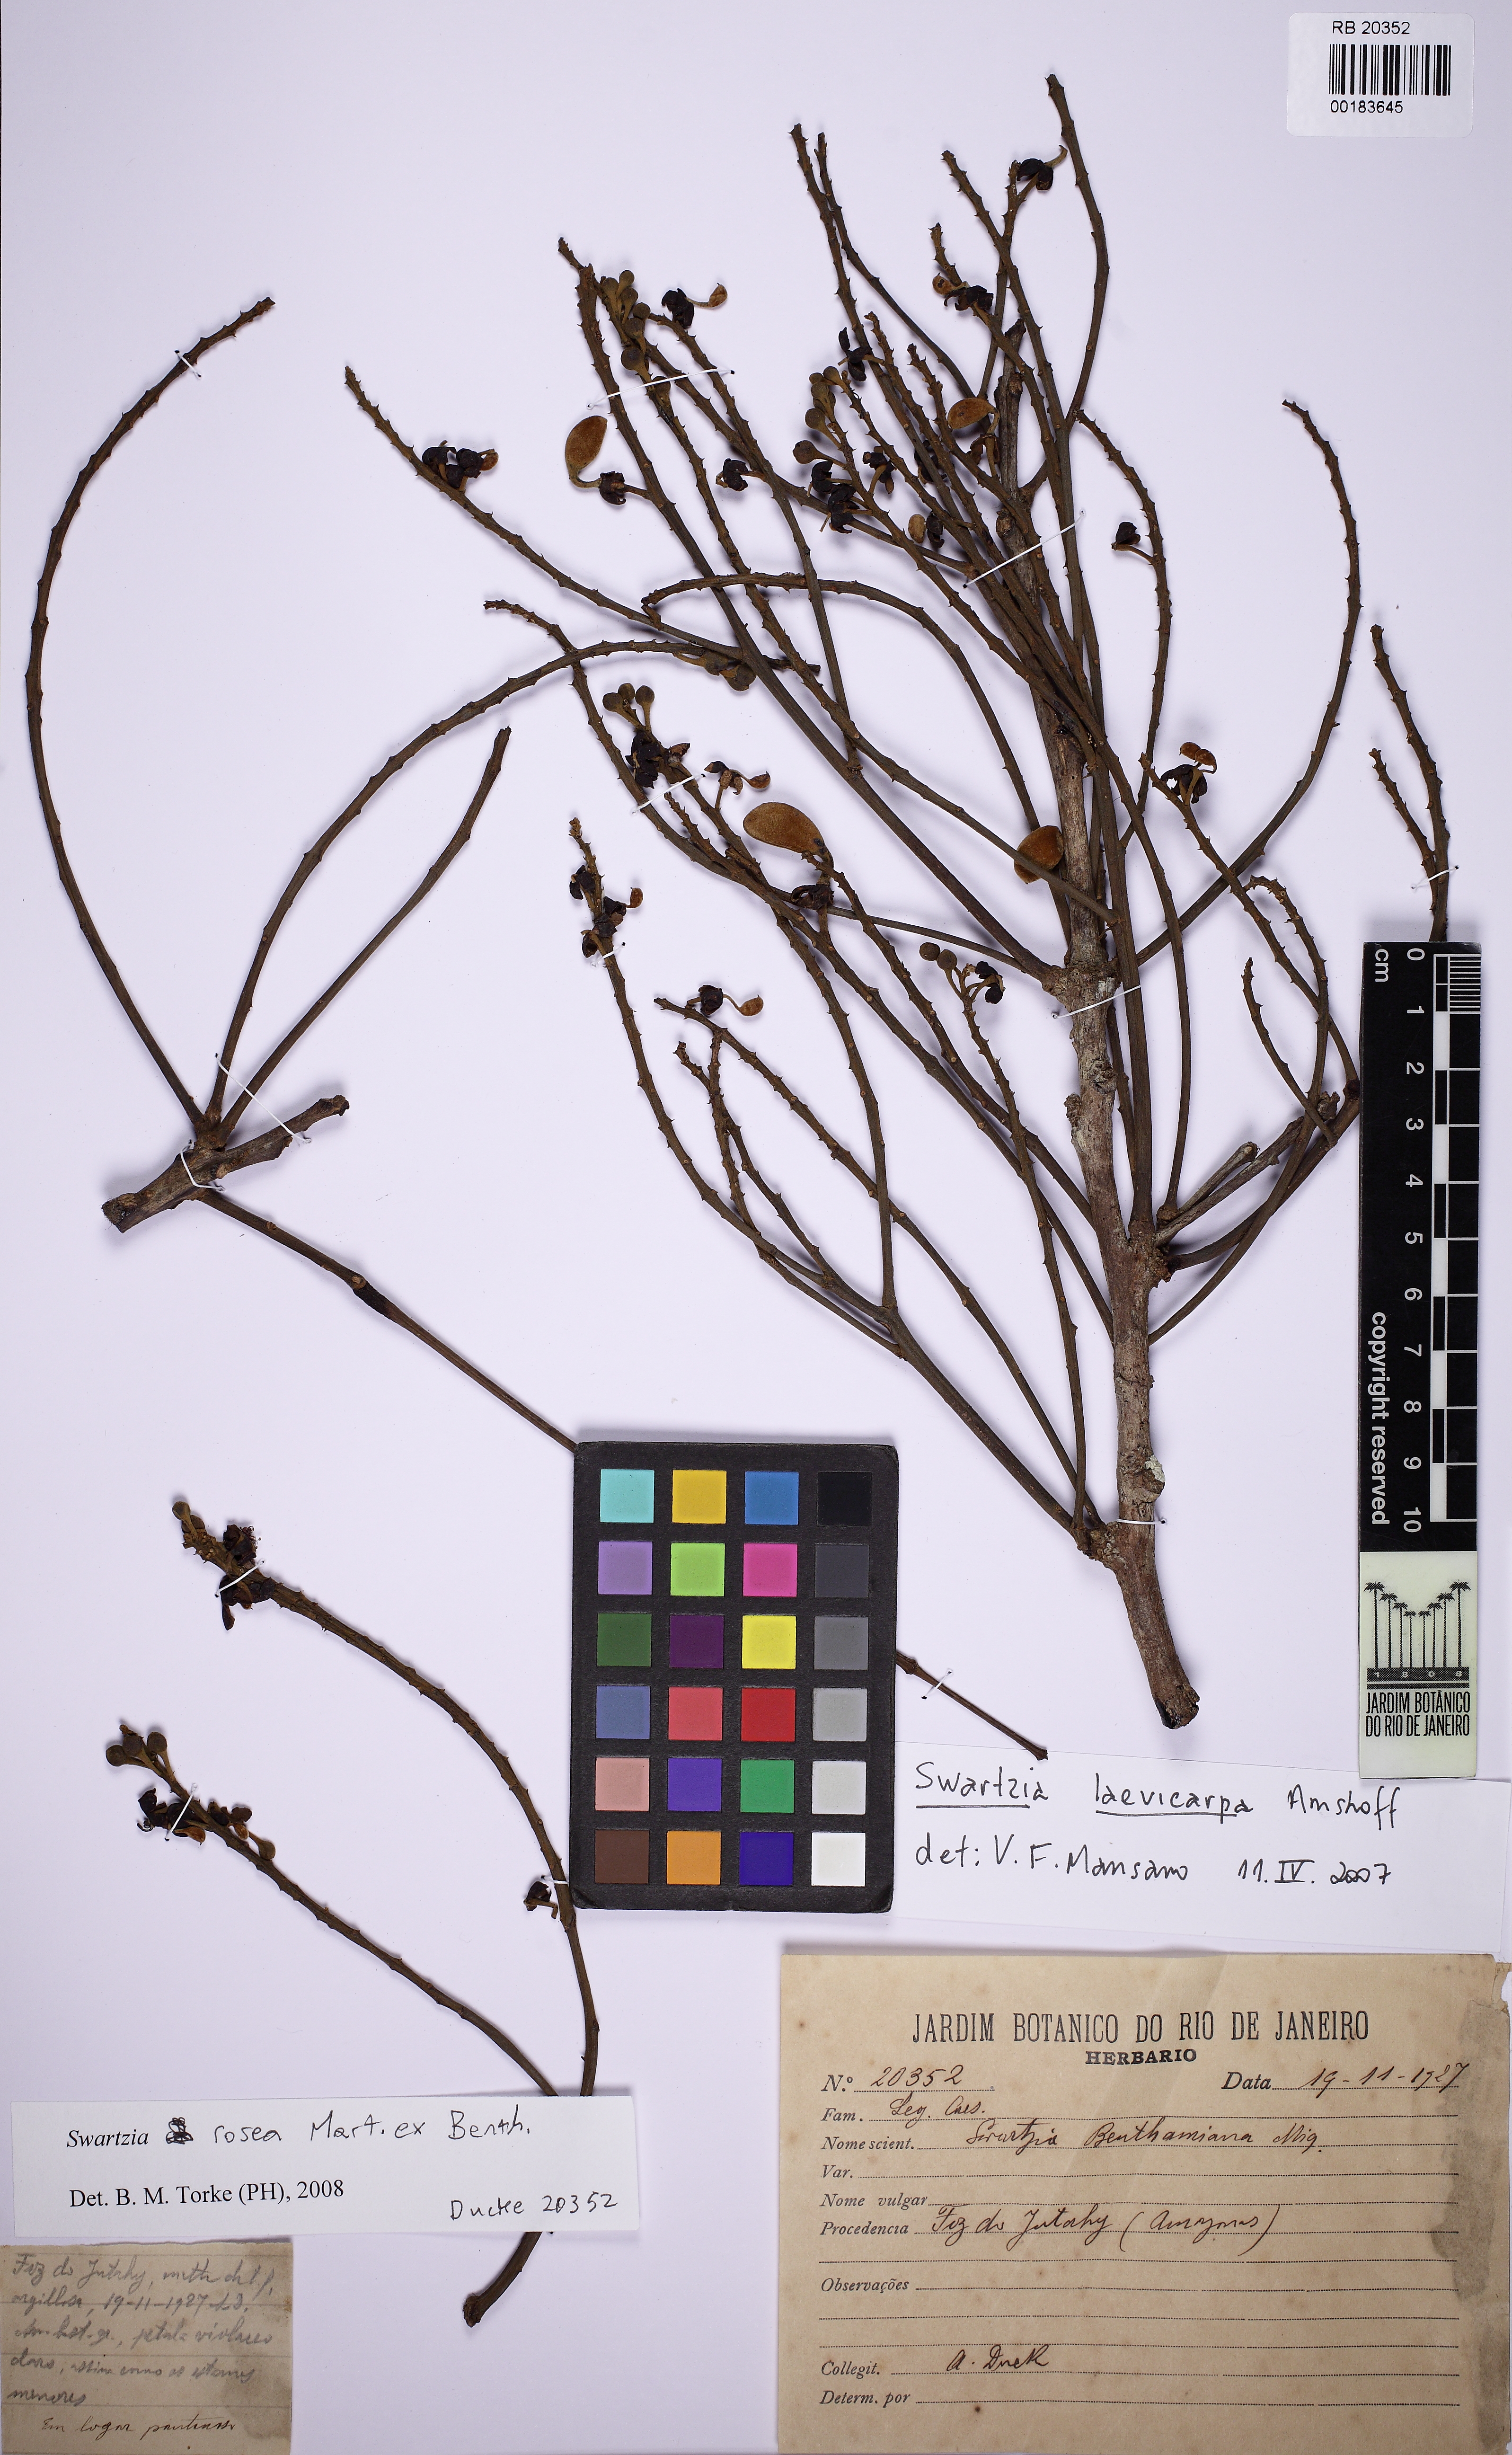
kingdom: Plantae
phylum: Tracheophyta
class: Magnoliopsida
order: Fabales
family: Fabaceae
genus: Swartzia
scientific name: Swartzia laevicarpa
